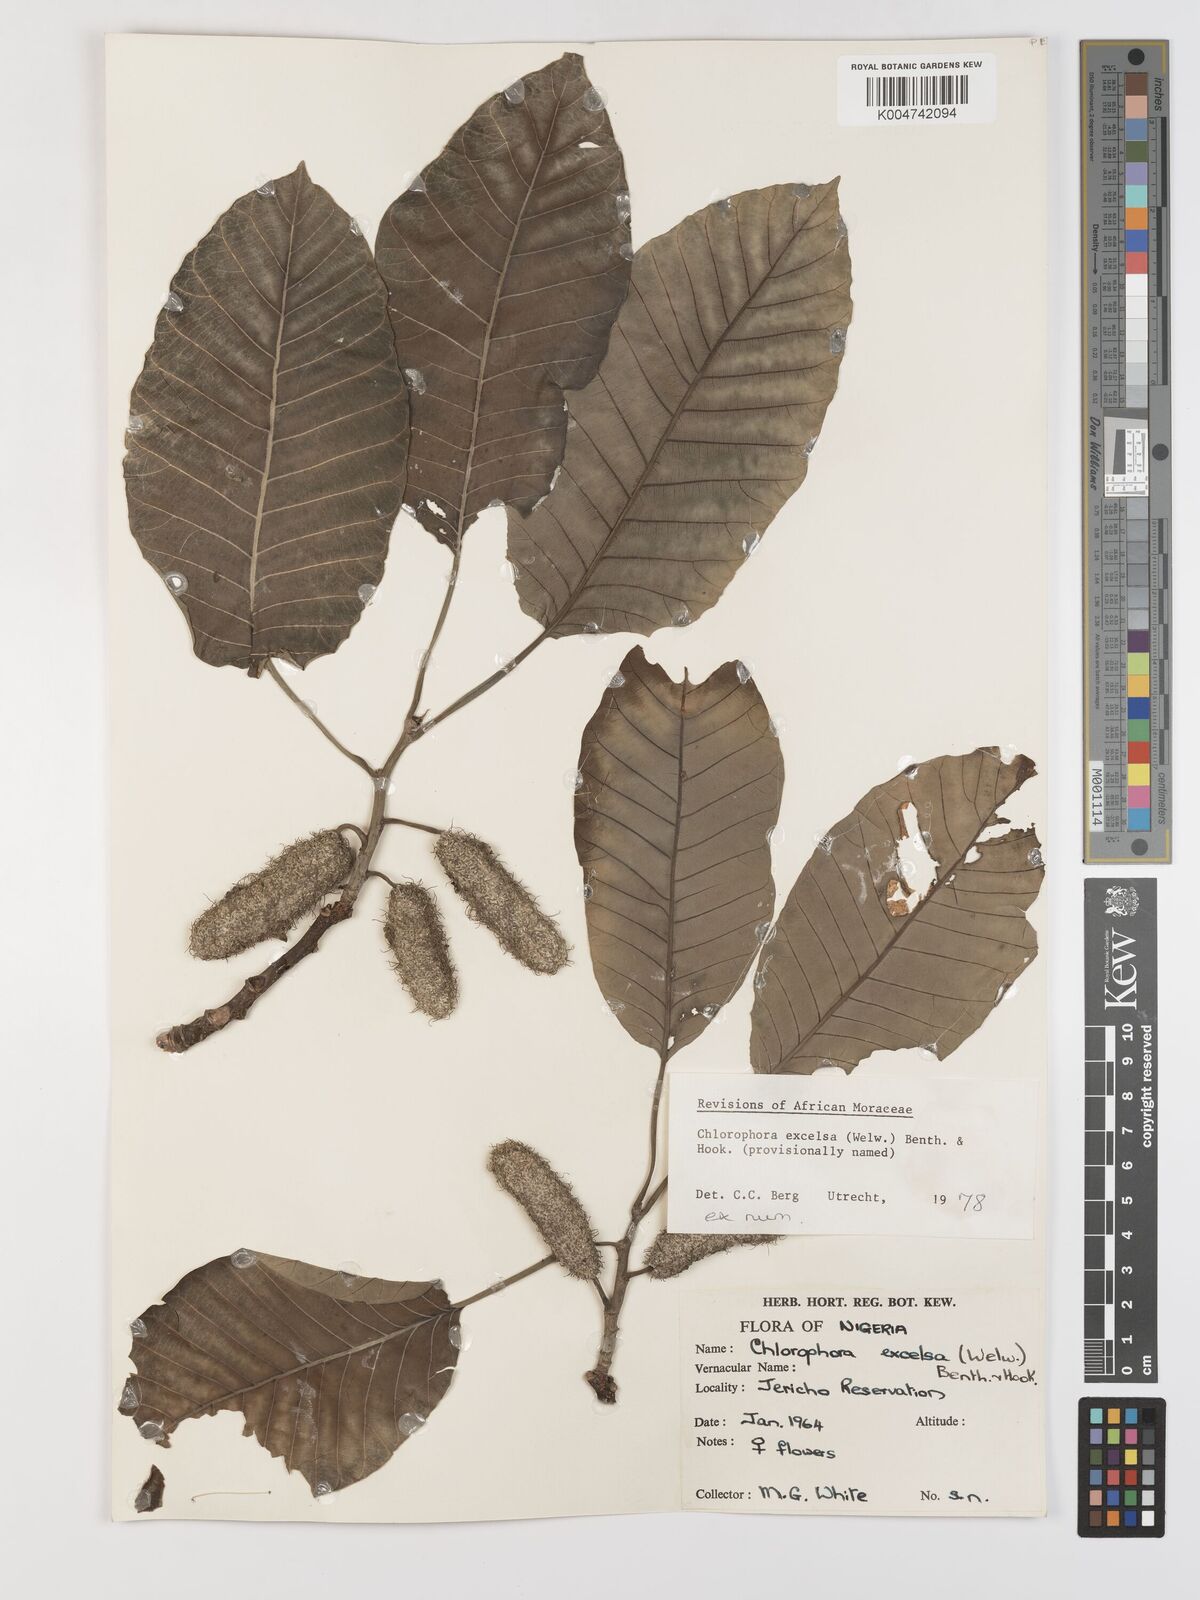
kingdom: Plantae
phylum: Tracheophyta
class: Magnoliopsida
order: Rosales
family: Moraceae
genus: Milicia
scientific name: Milicia excelsa
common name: African teak
